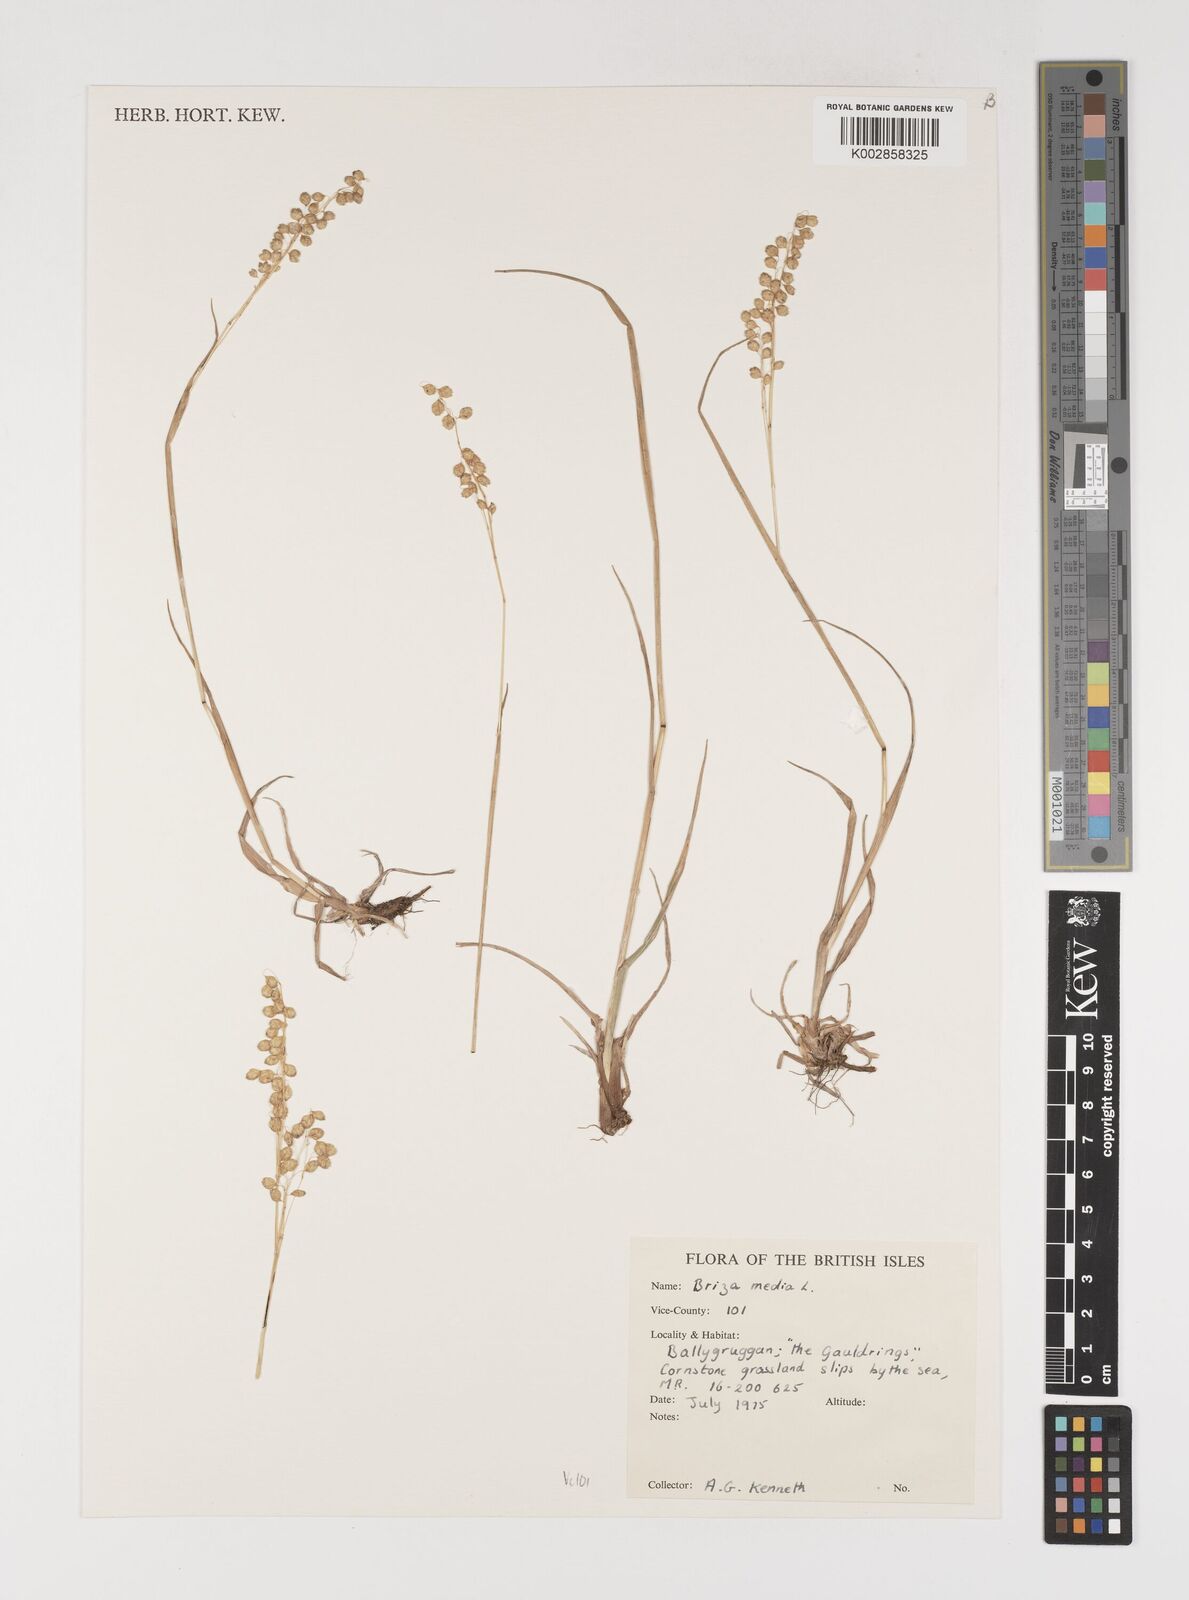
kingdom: Plantae
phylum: Tracheophyta
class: Liliopsida
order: Poales
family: Poaceae
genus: Briza
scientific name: Briza media
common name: Quaking grass
